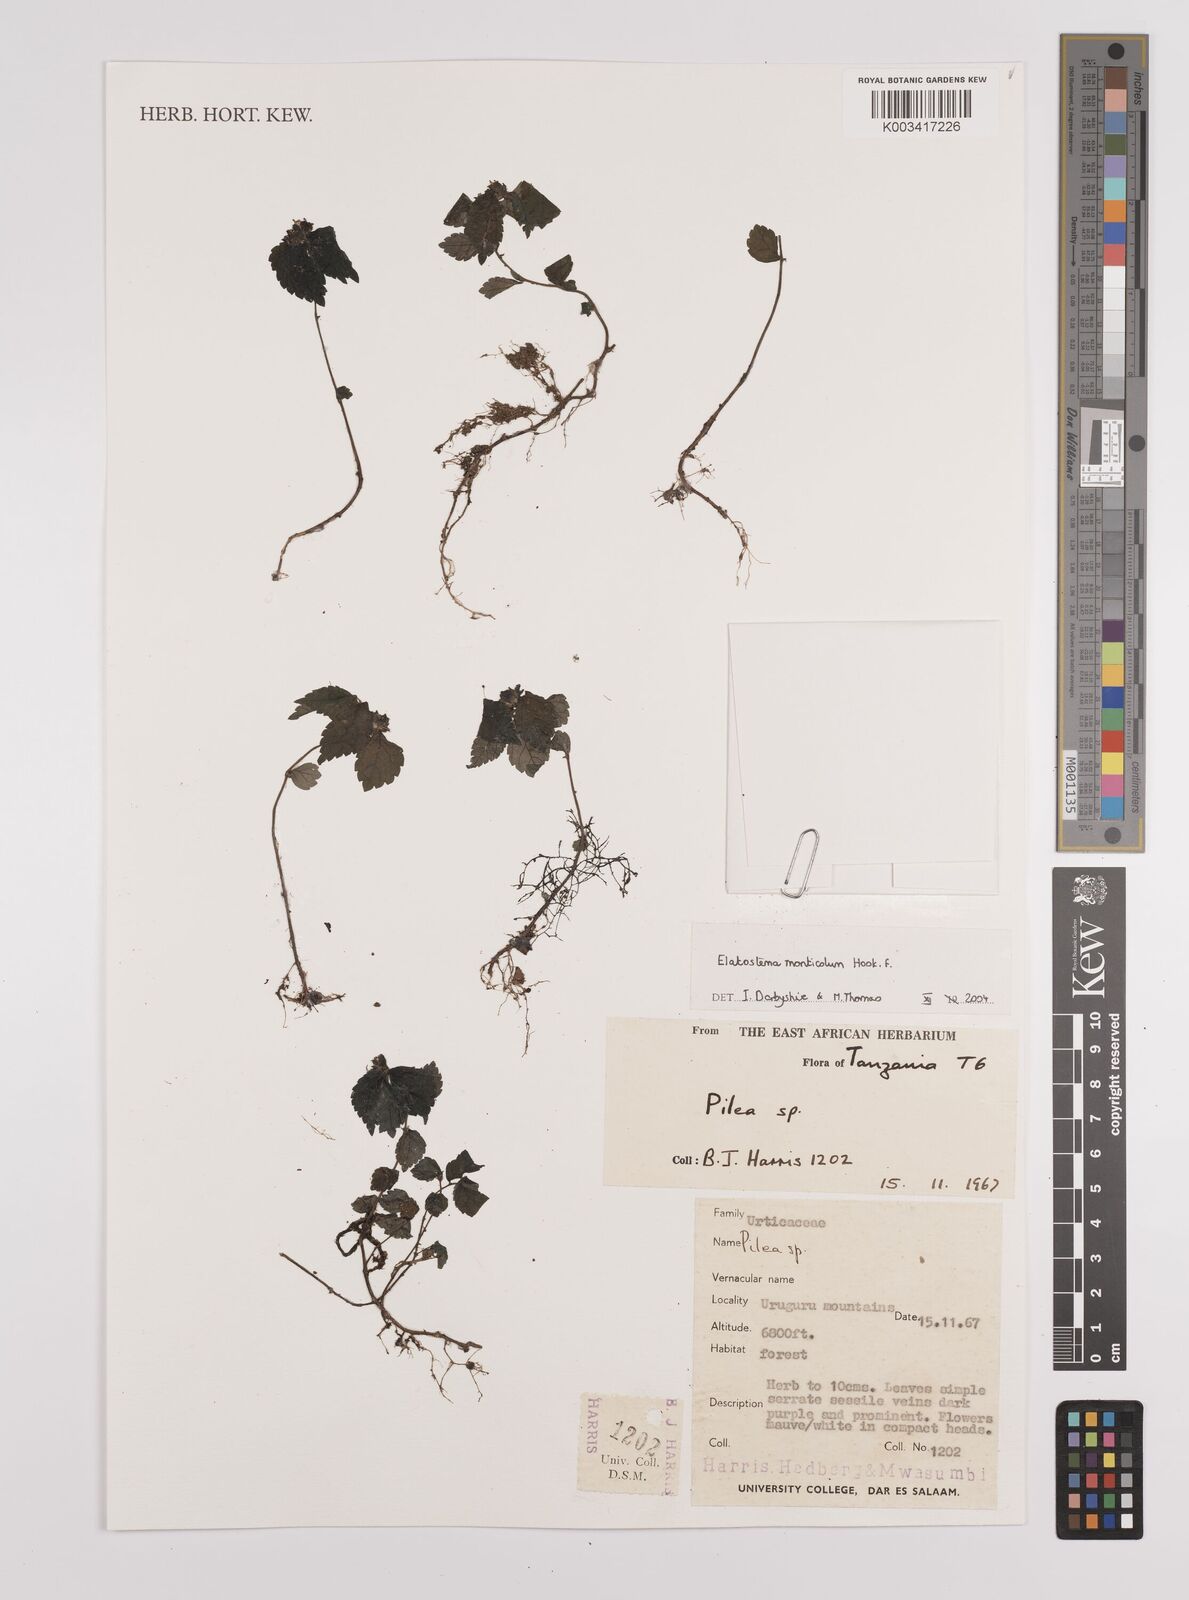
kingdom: Plantae
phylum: Tracheophyta
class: Magnoliopsida
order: Rosales
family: Urticaceae
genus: Elatostema
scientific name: Elatostema monticola
